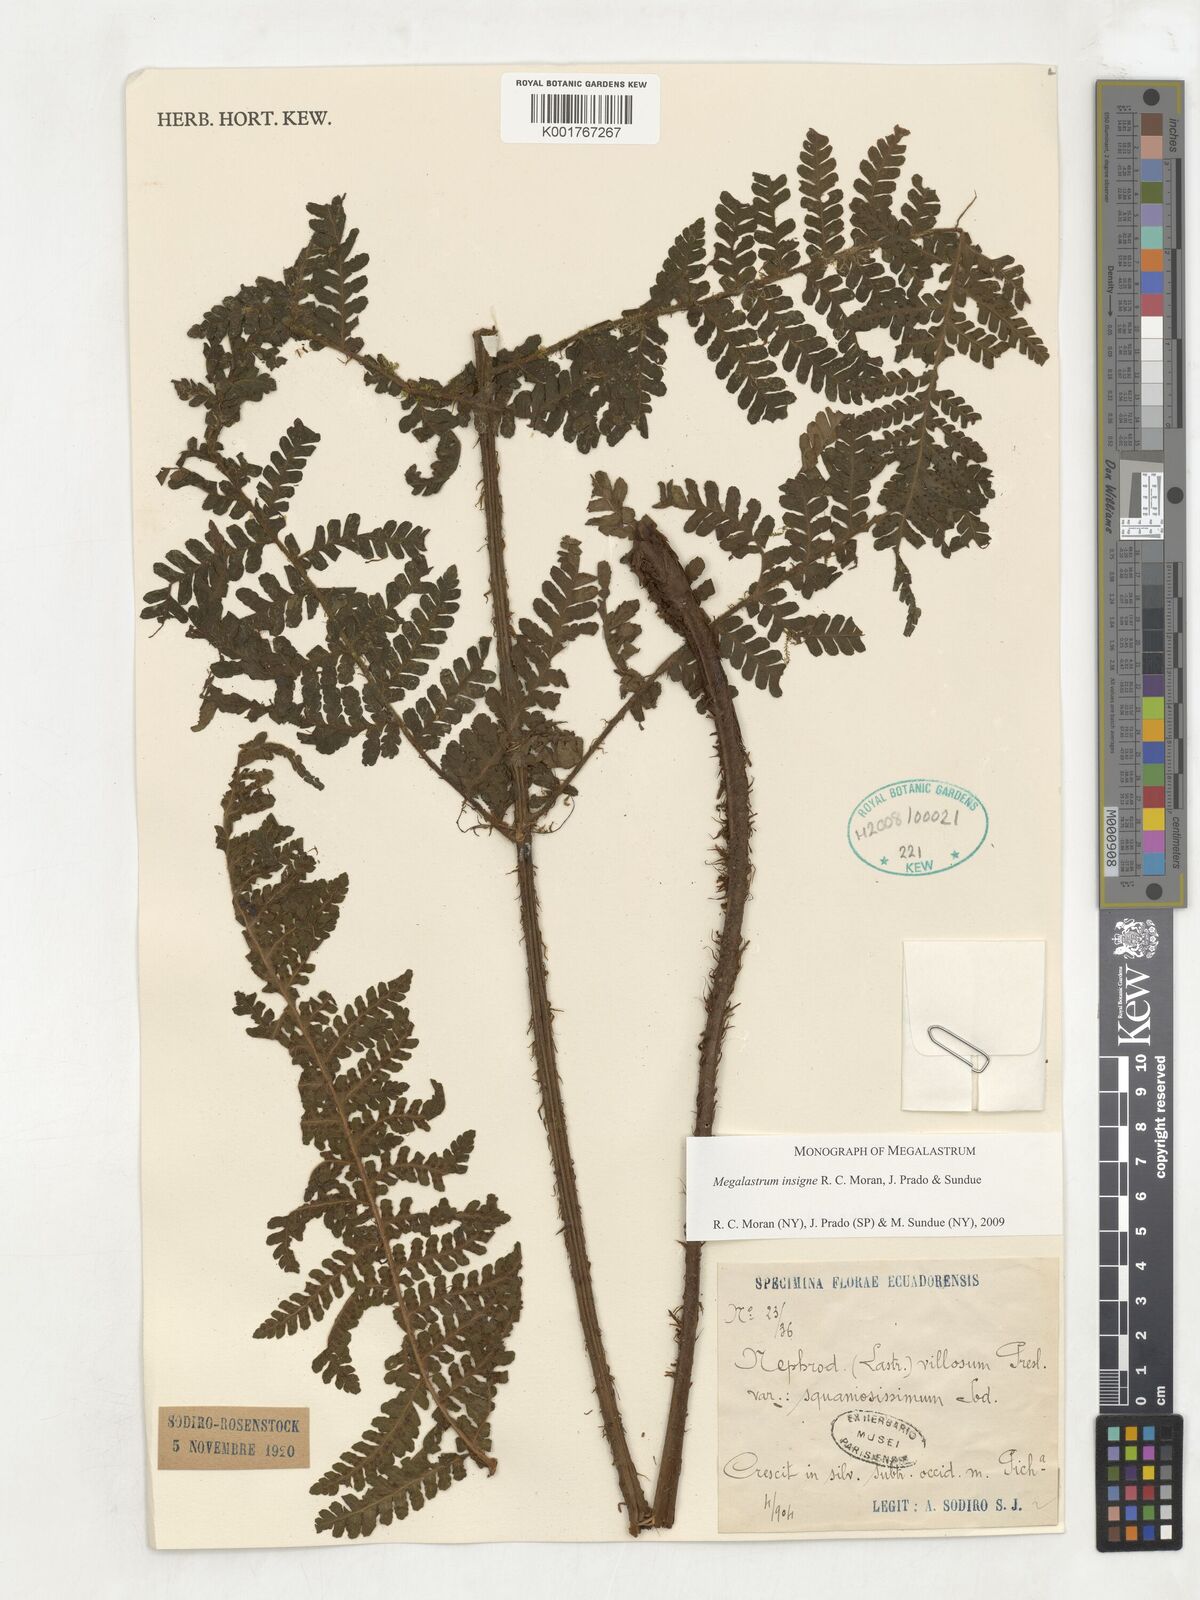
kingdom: Plantae
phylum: Tracheophyta
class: Polypodiopsida
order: Polypodiales
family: Dryopteridaceae
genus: Megalastrum
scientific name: Megalastrum insigne
